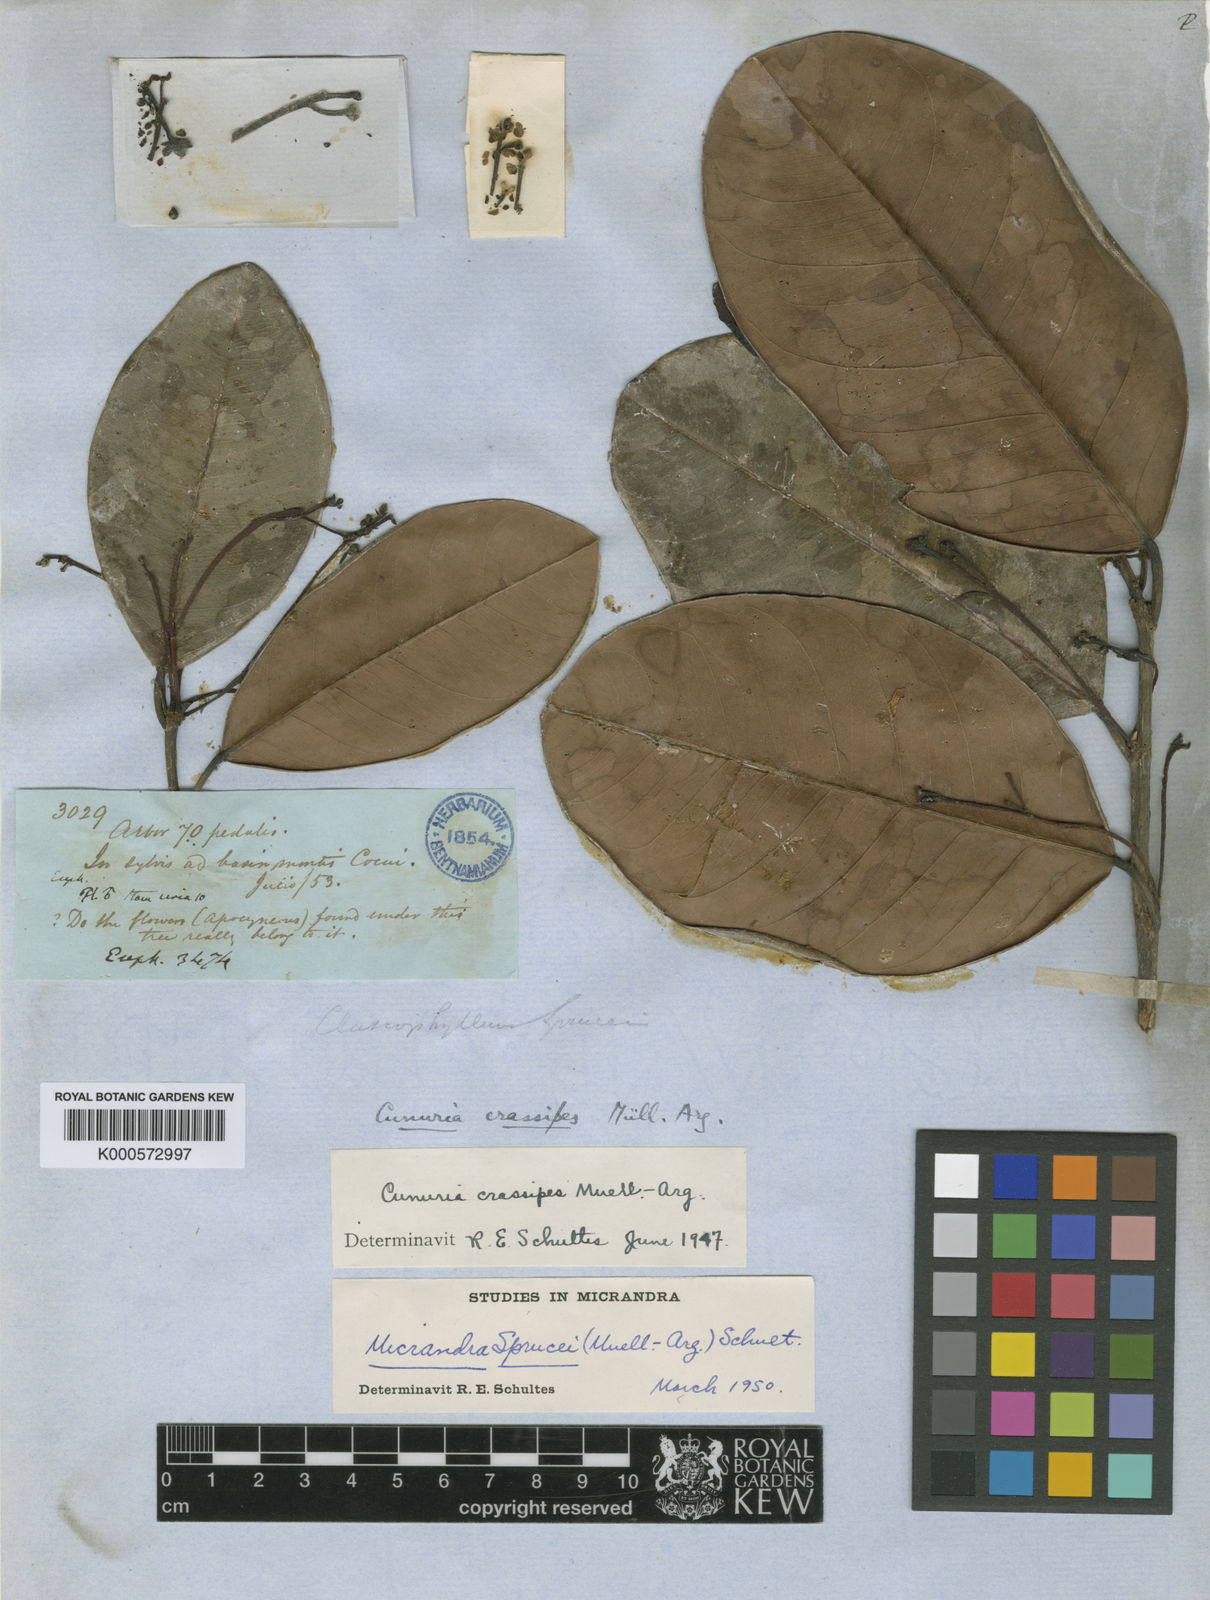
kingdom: Plantae
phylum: Tracheophyta
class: Magnoliopsida
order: Malpighiales
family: Euphorbiaceae
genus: Micrandra
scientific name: Micrandra
